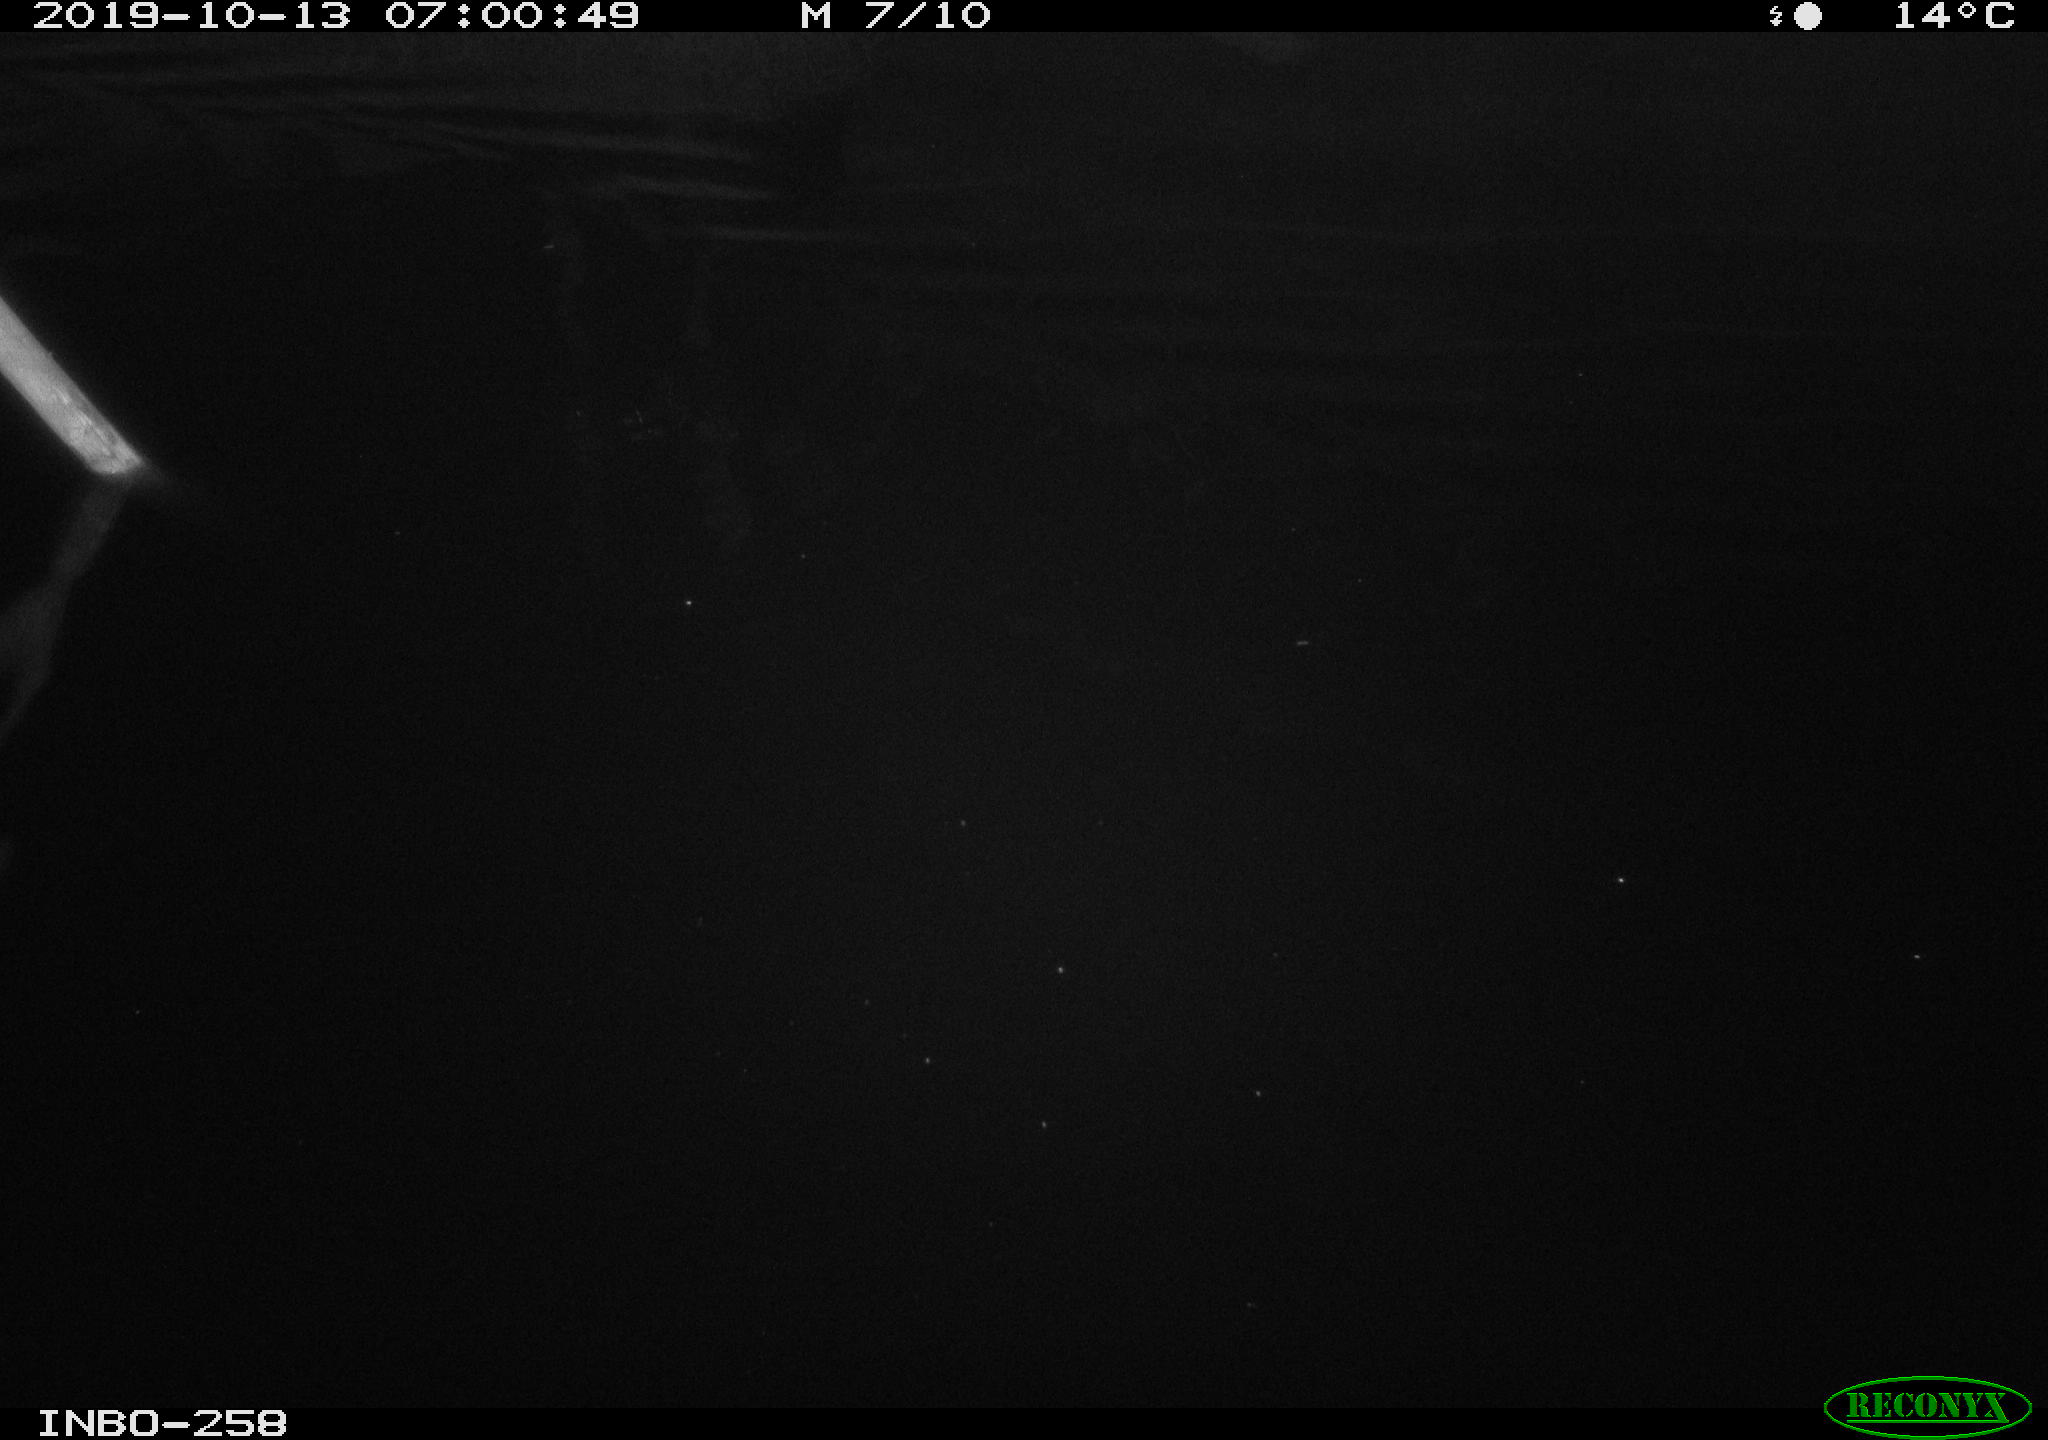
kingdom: Animalia
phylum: Chordata
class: Mammalia
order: Rodentia
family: Muridae
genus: Rattus
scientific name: Rattus norvegicus
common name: Brown rat
